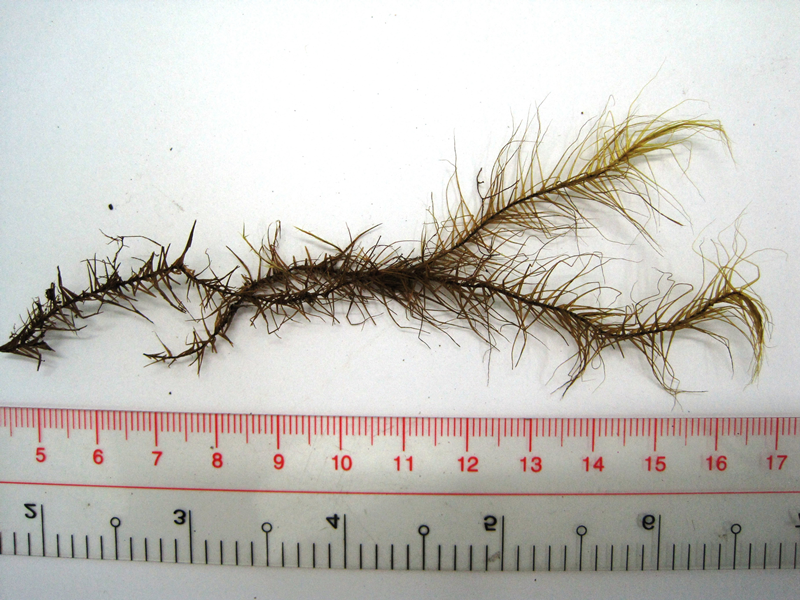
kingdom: Plantae
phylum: Bryophyta
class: Bryopsida
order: Dicranales
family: Dicranaceae
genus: Dicranoloma
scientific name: Dicranoloma blumii
